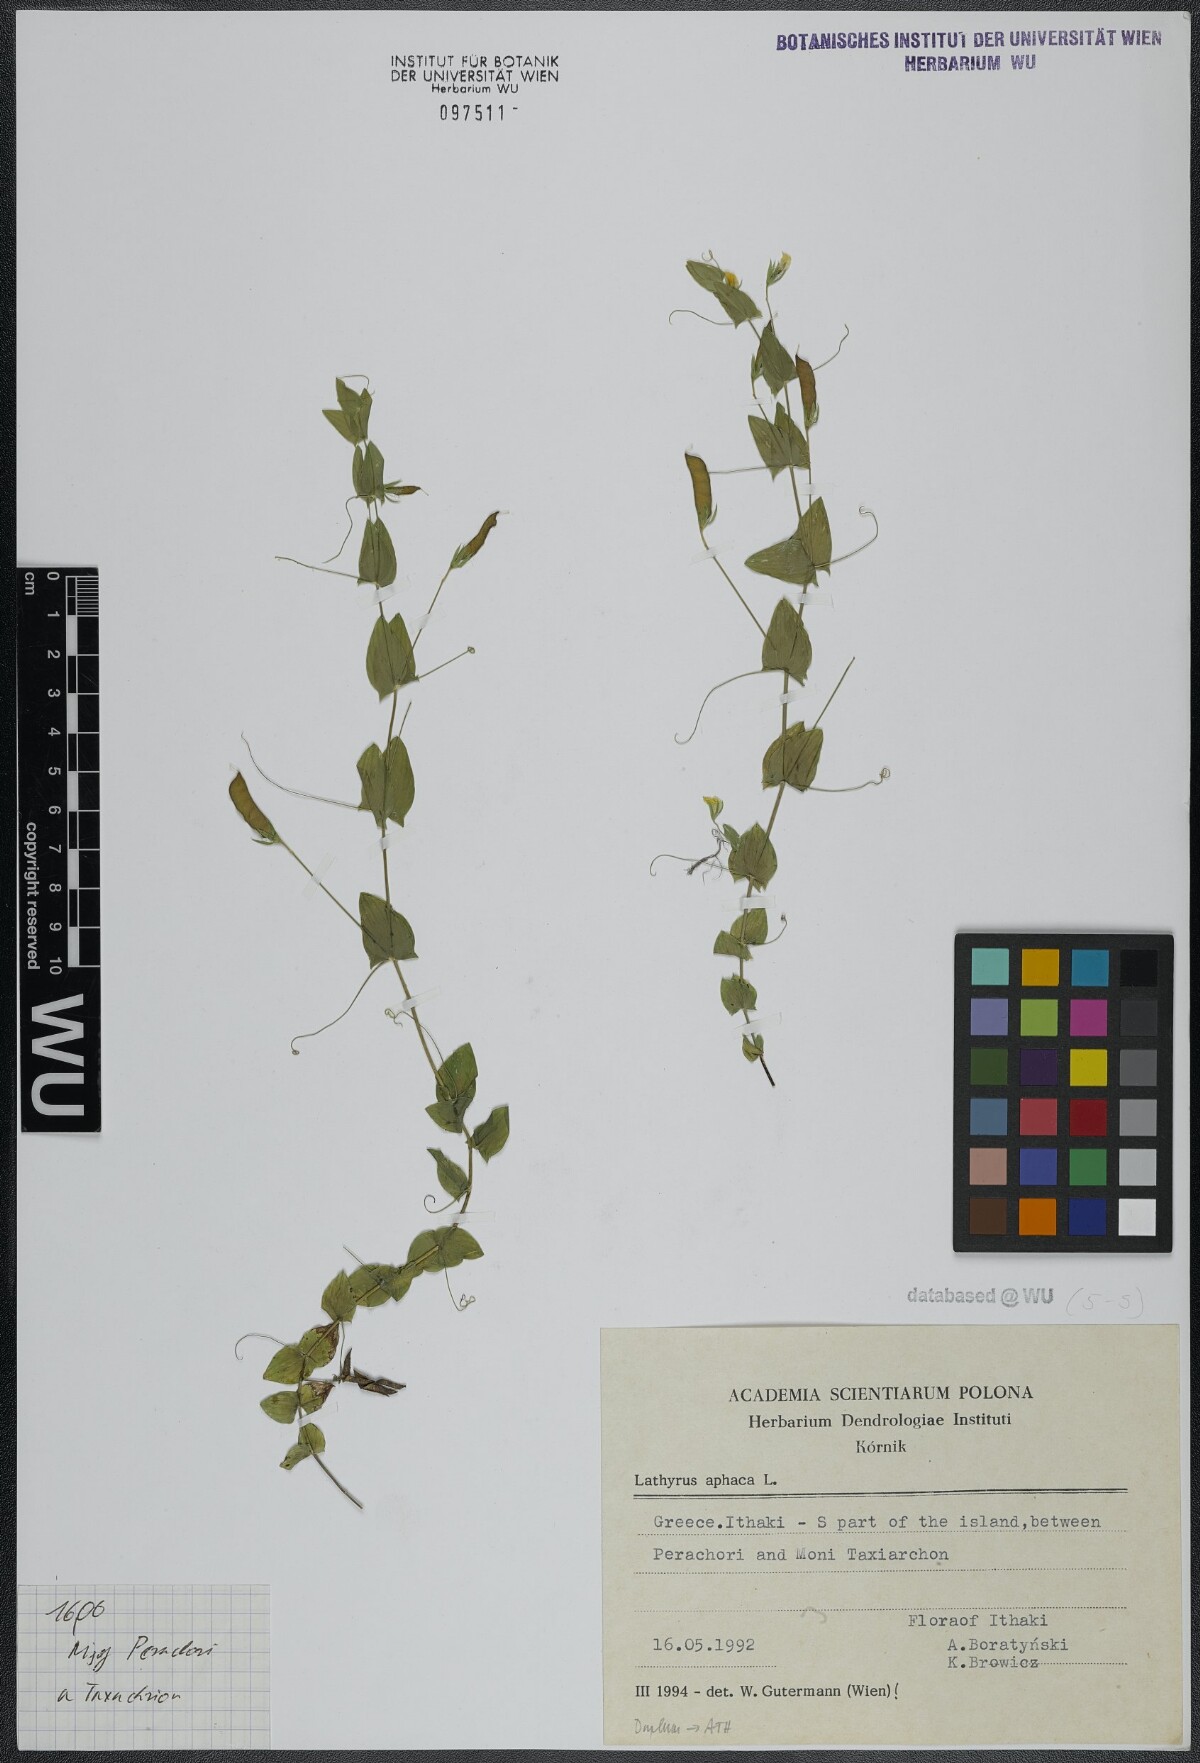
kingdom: Plantae
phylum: Tracheophyta
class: Magnoliopsida
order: Fabales
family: Fabaceae
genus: Lathyrus
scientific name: Lathyrus aphaca
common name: Yellow vetchling
